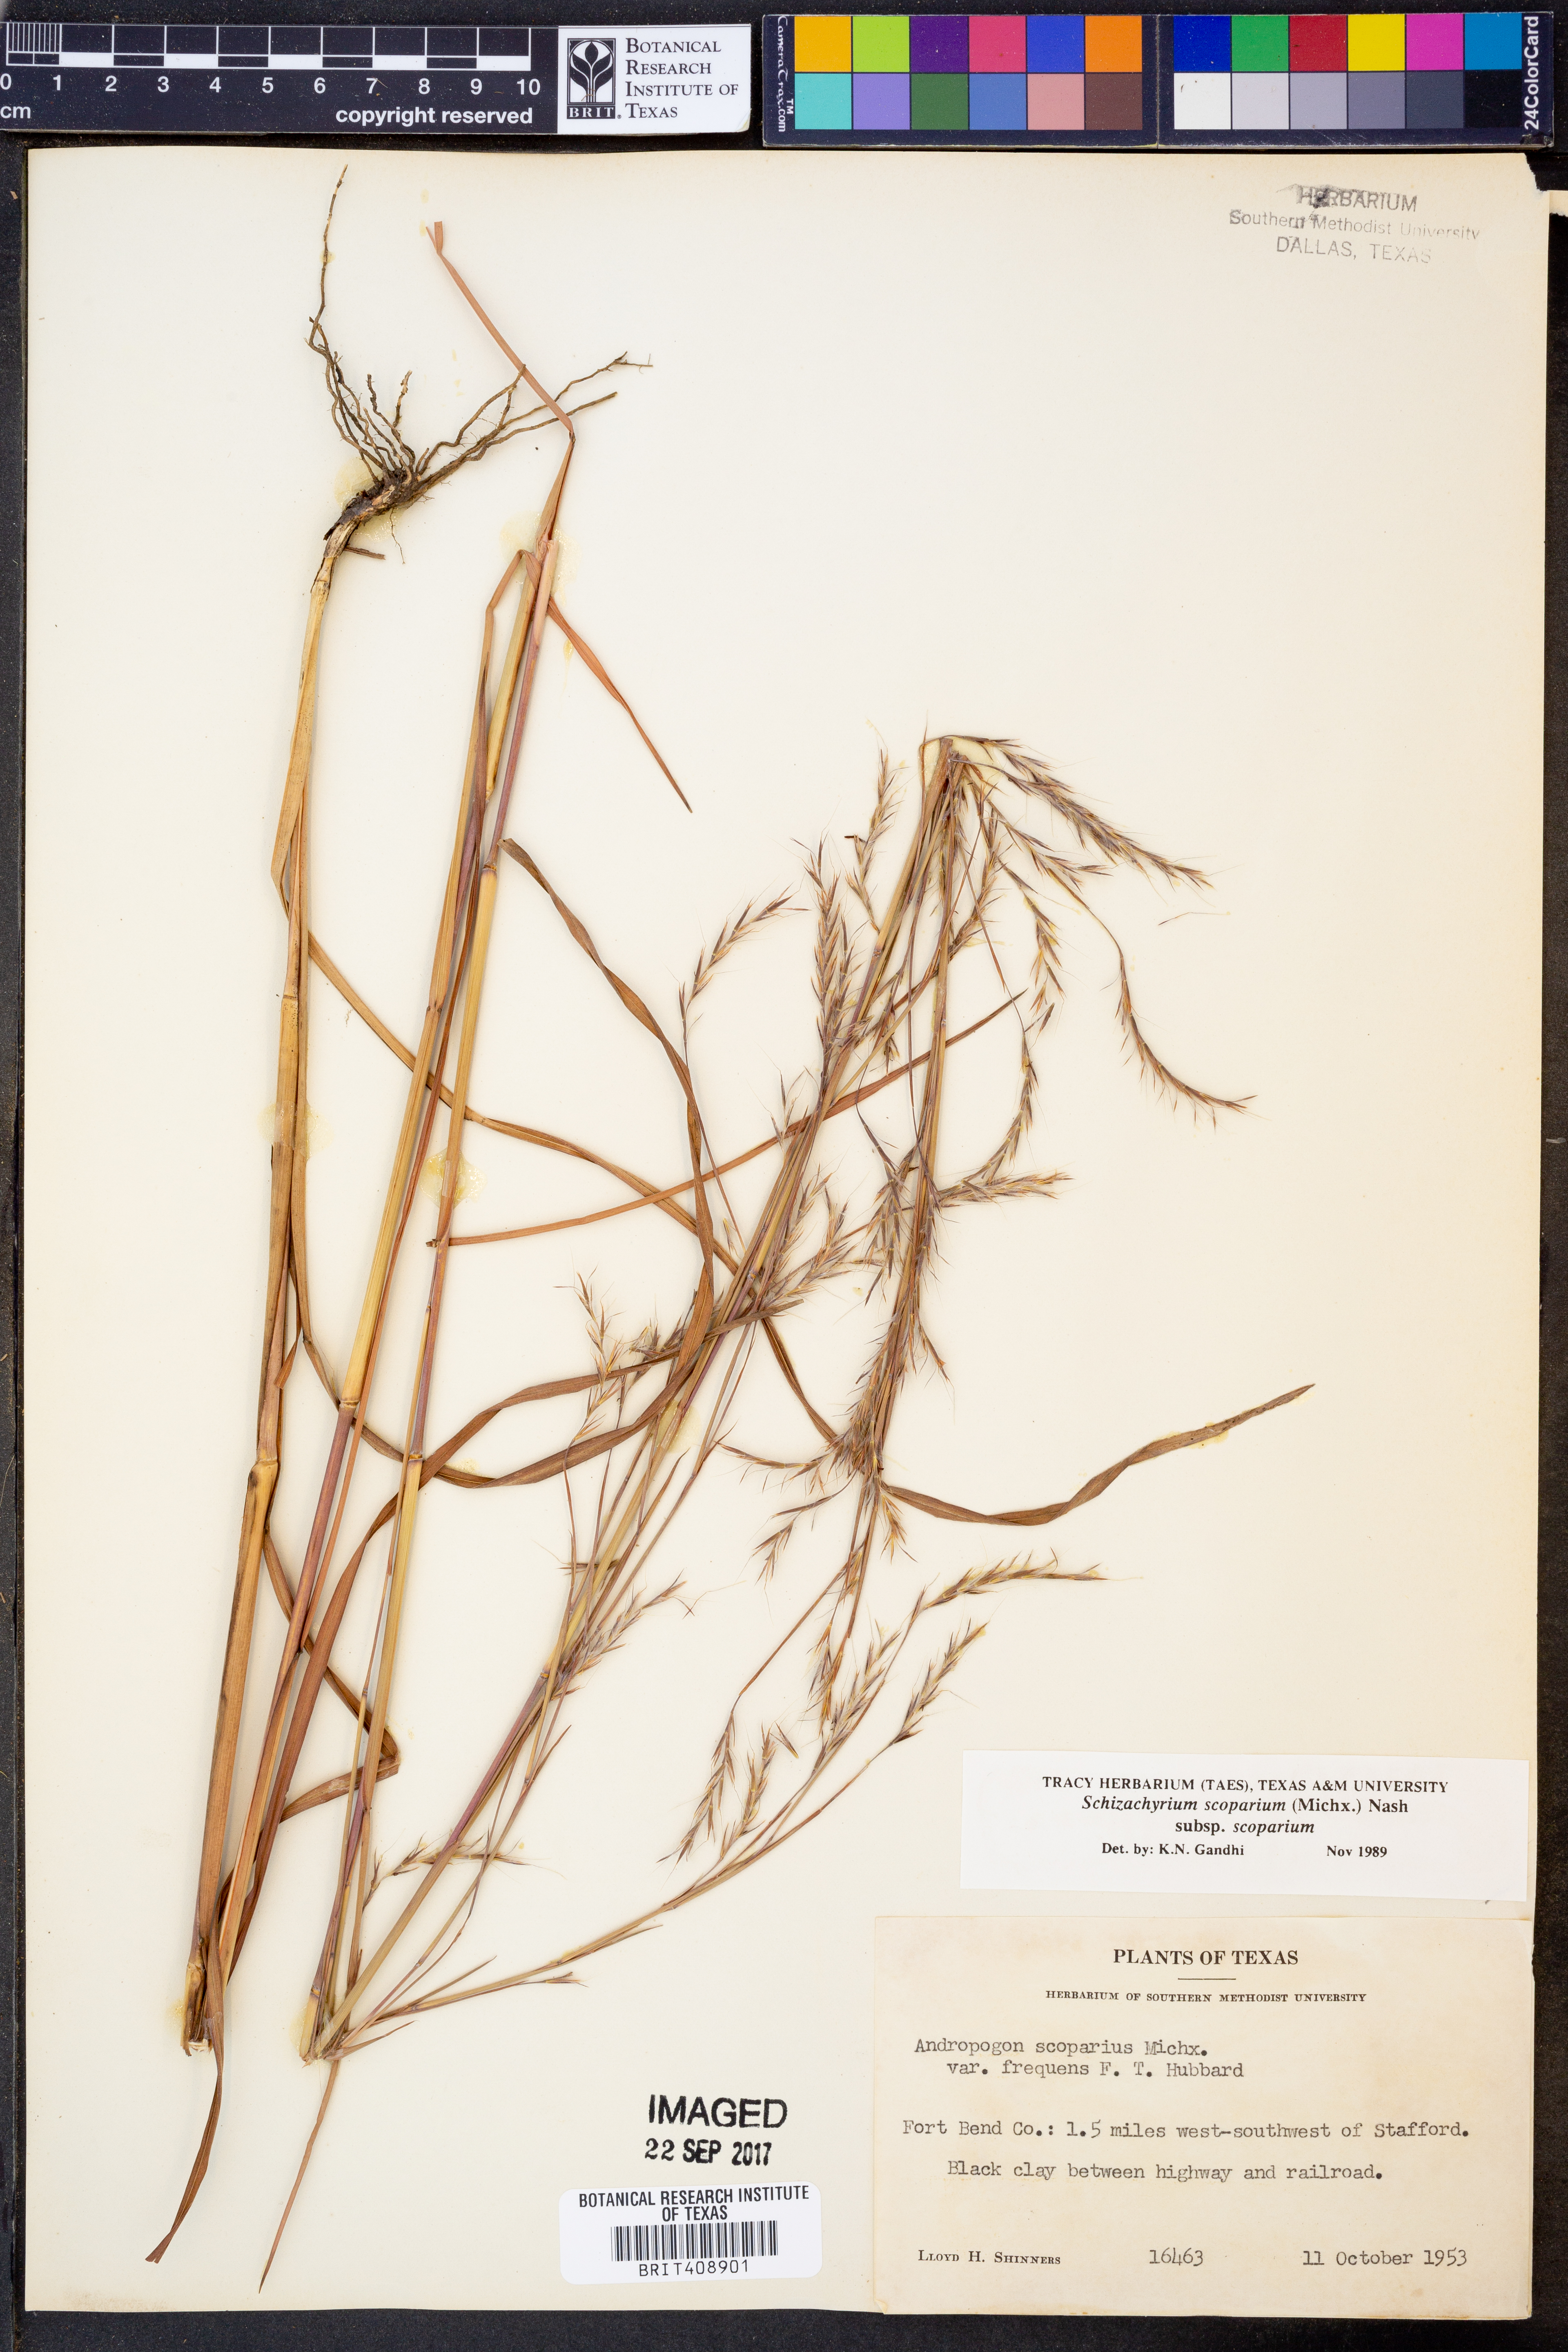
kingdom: Plantae
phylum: Tracheophyta
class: Liliopsida
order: Poales
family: Poaceae
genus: Schizachyrium
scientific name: Schizachyrium scoparium
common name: Little bluestem
